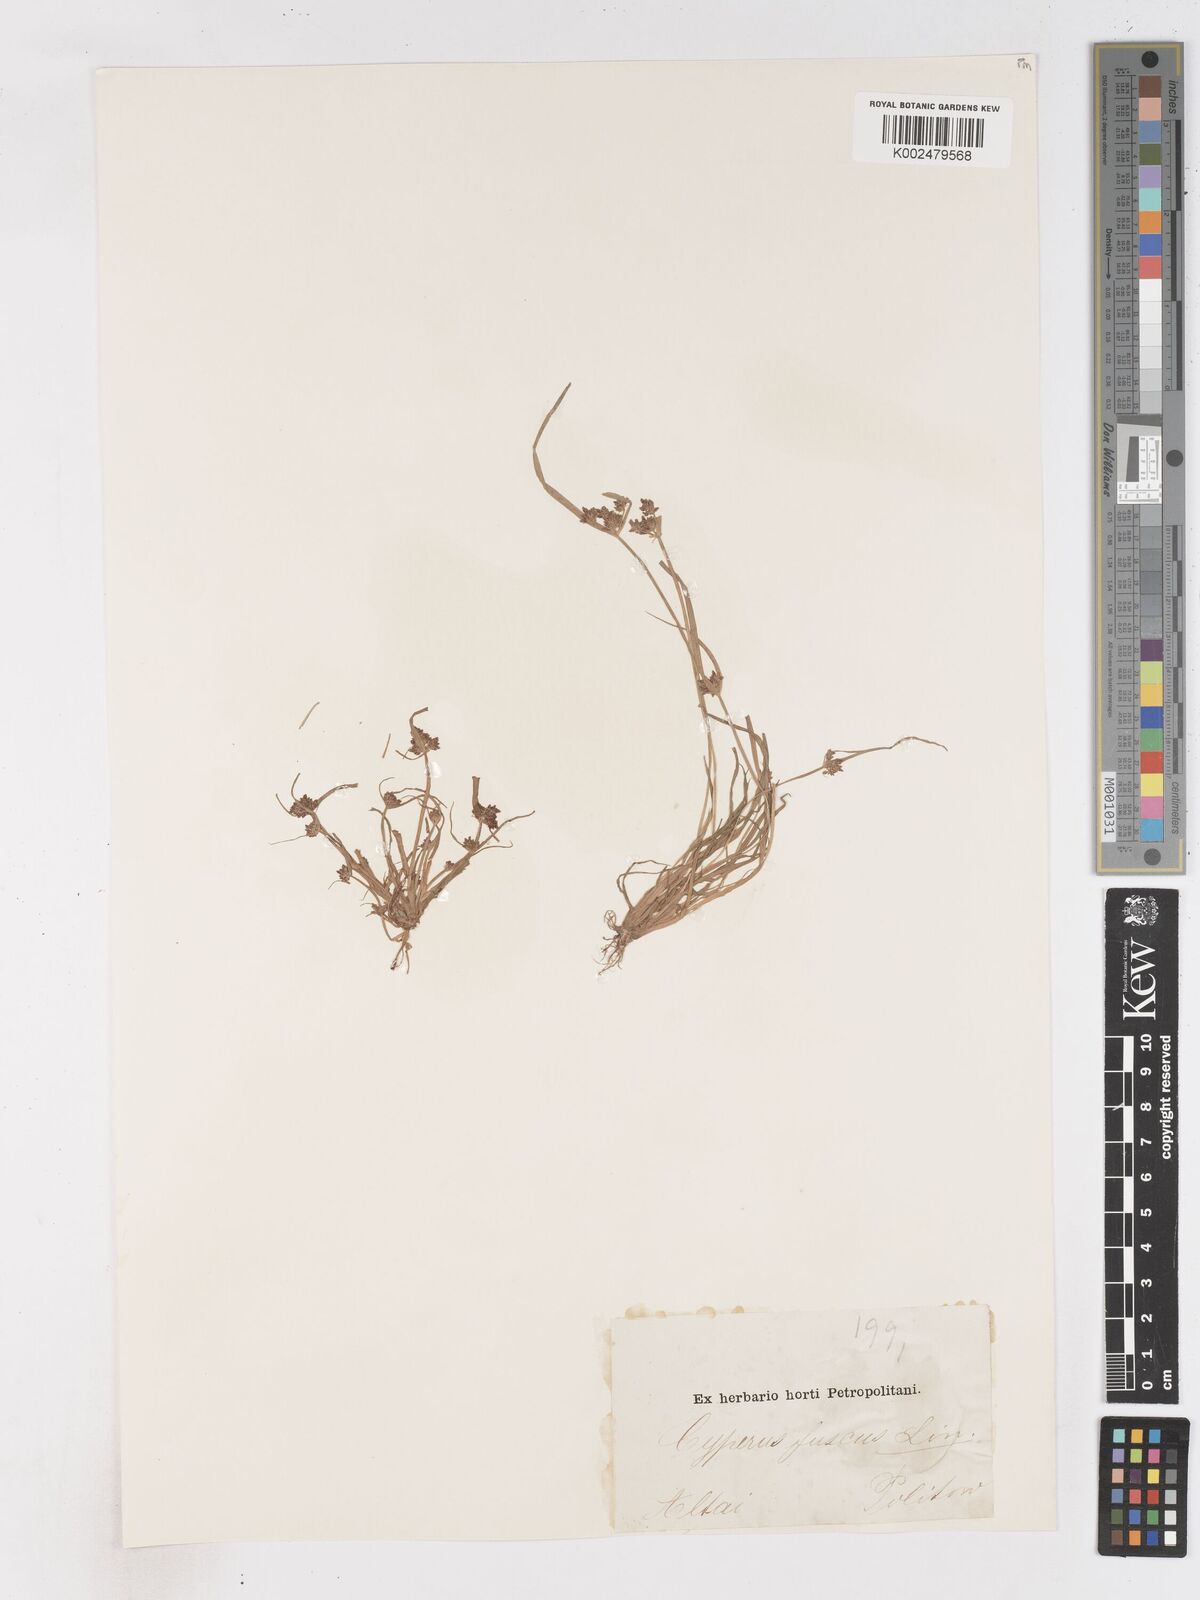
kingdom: Plantae
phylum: Tracheophyta
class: Liliopsida
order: Poales
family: Cyperaceae
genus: Cyperus
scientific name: Cyperus fuscus
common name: Brown galingale
